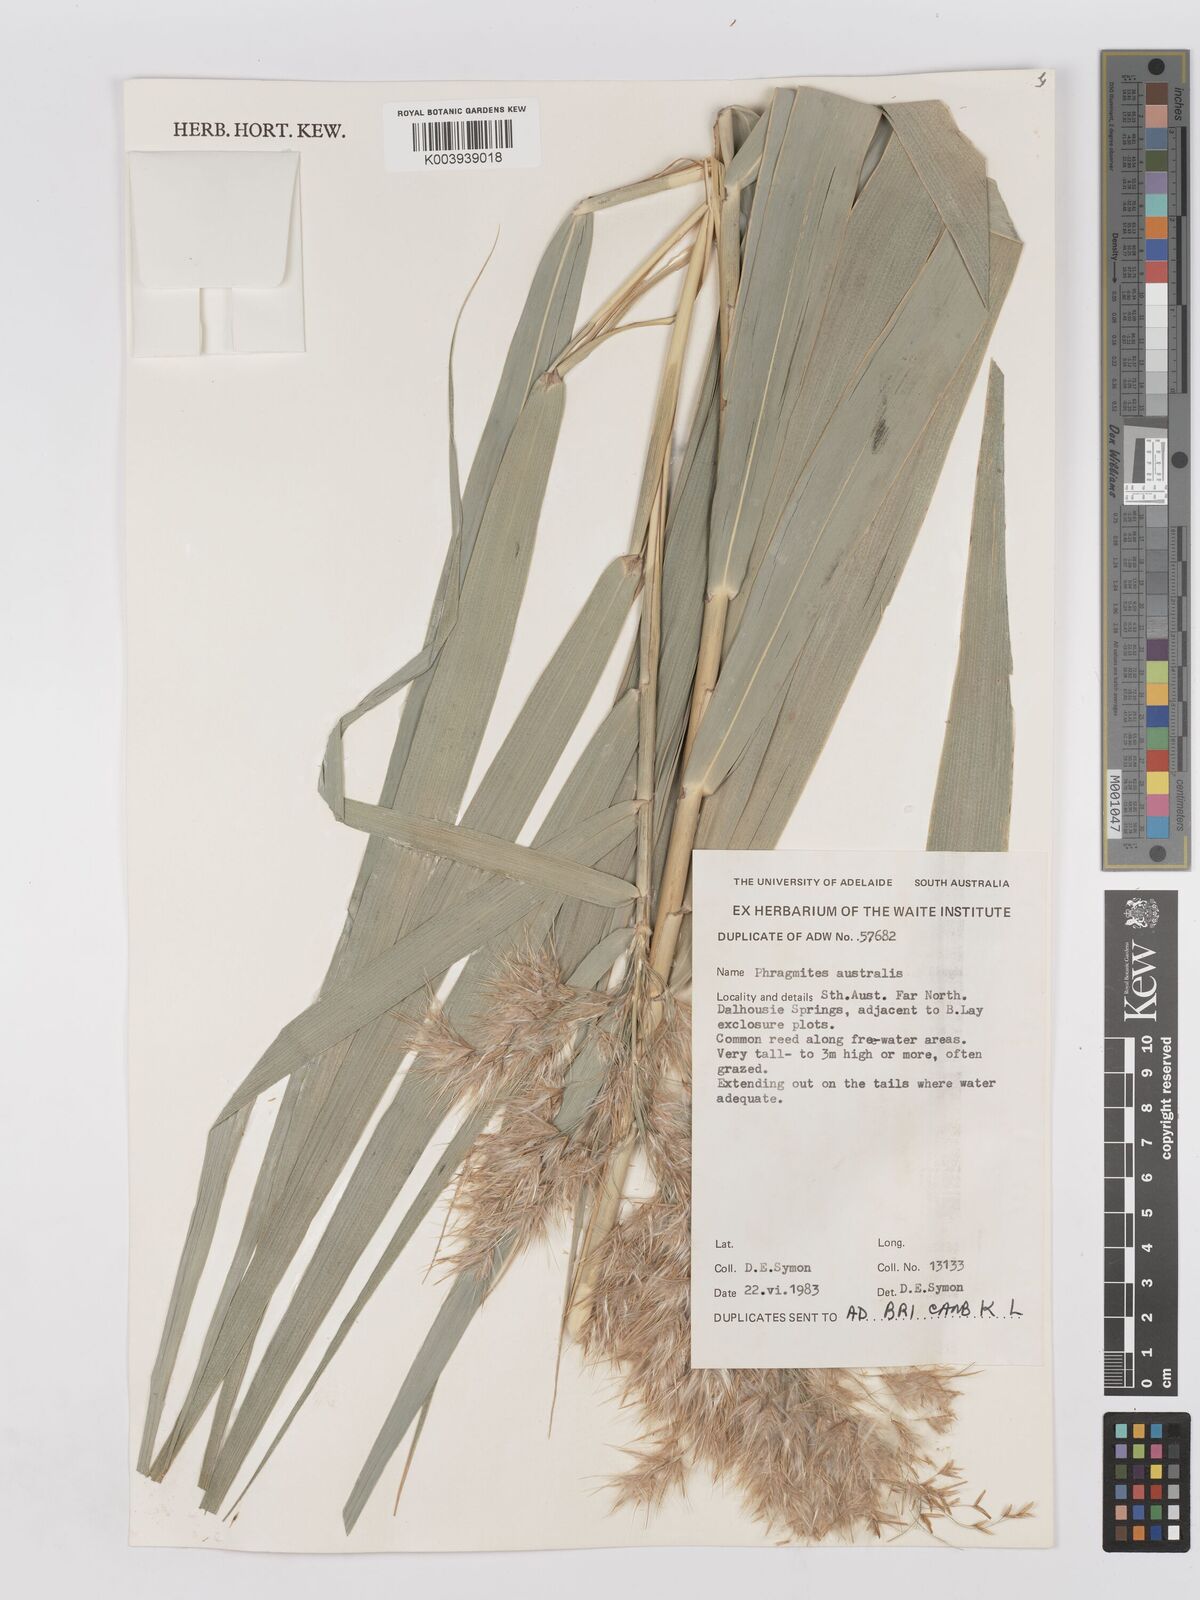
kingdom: Plantae
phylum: Tracheophyta
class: Liliopsida
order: Poales
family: Poaceae
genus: Phragmites
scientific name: Phragmites australis
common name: Common reed
